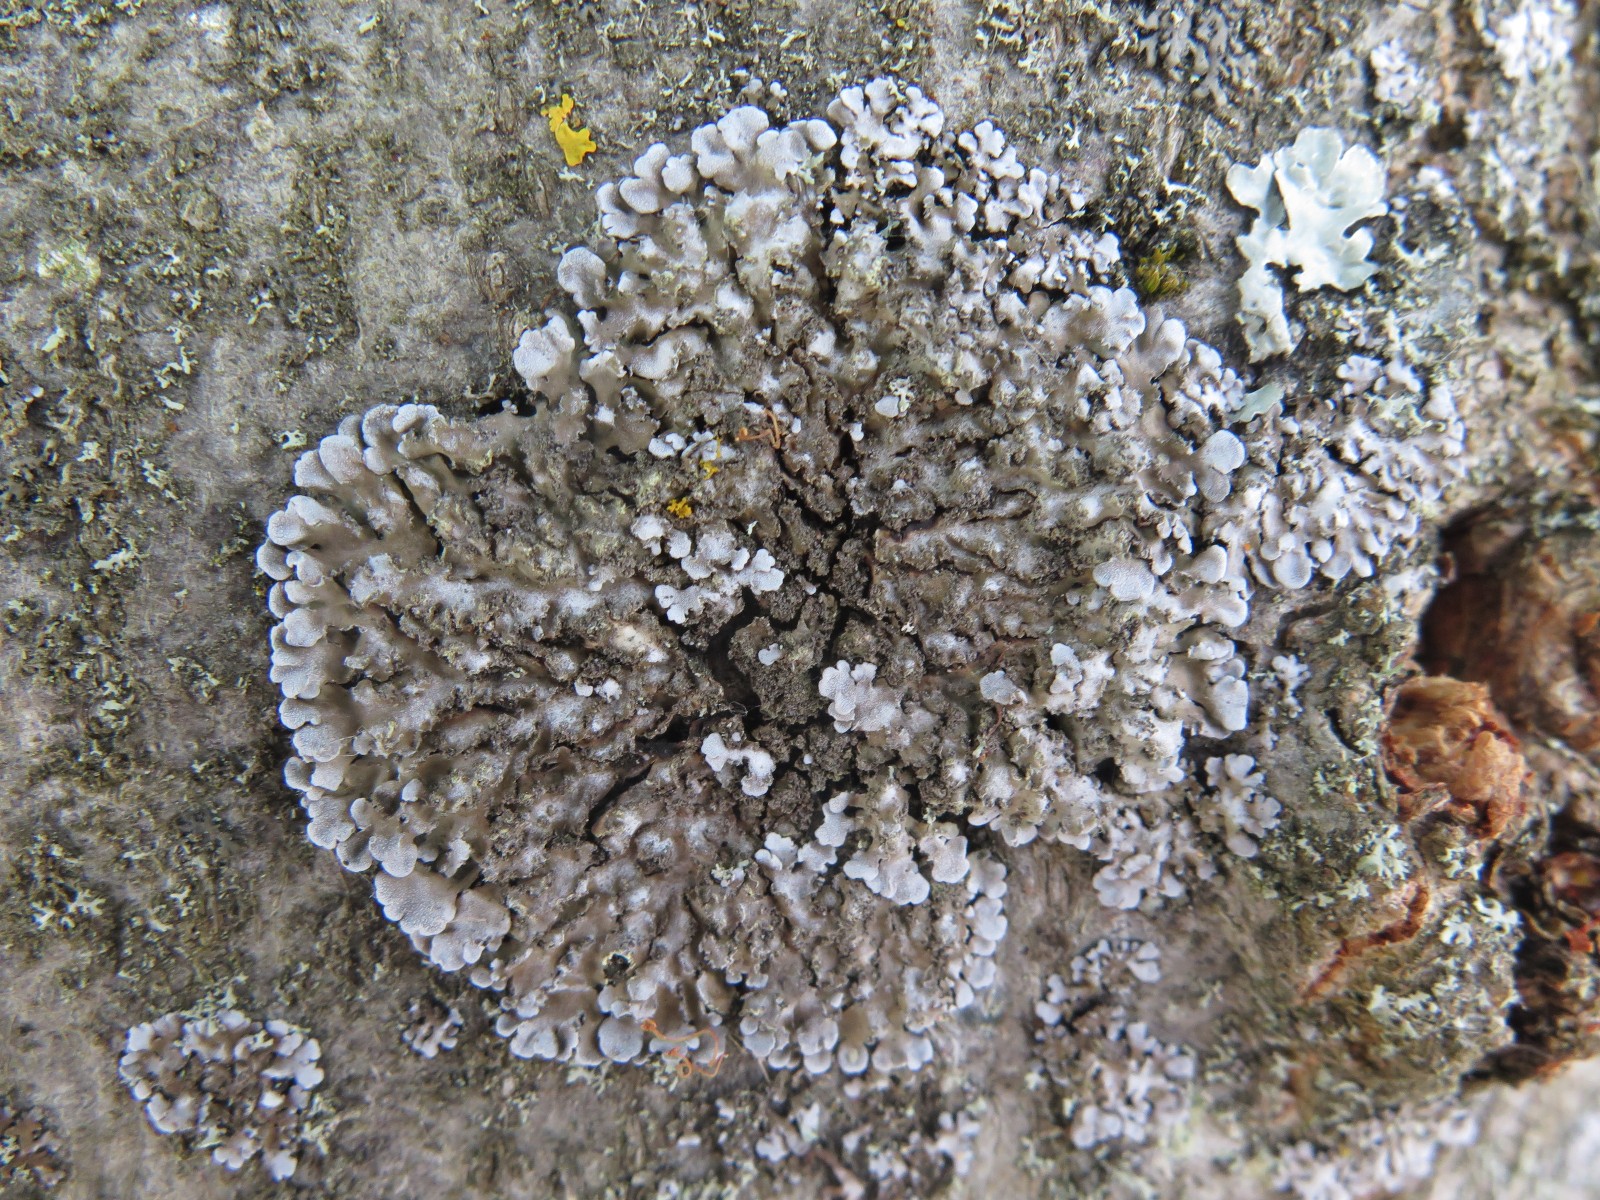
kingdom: Fungi
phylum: Ascomycota
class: Lecanoromycetes
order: Caliciales
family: Physciaceae
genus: Physconia
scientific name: Physconia enteroxantha
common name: grynet dugrosetlav
